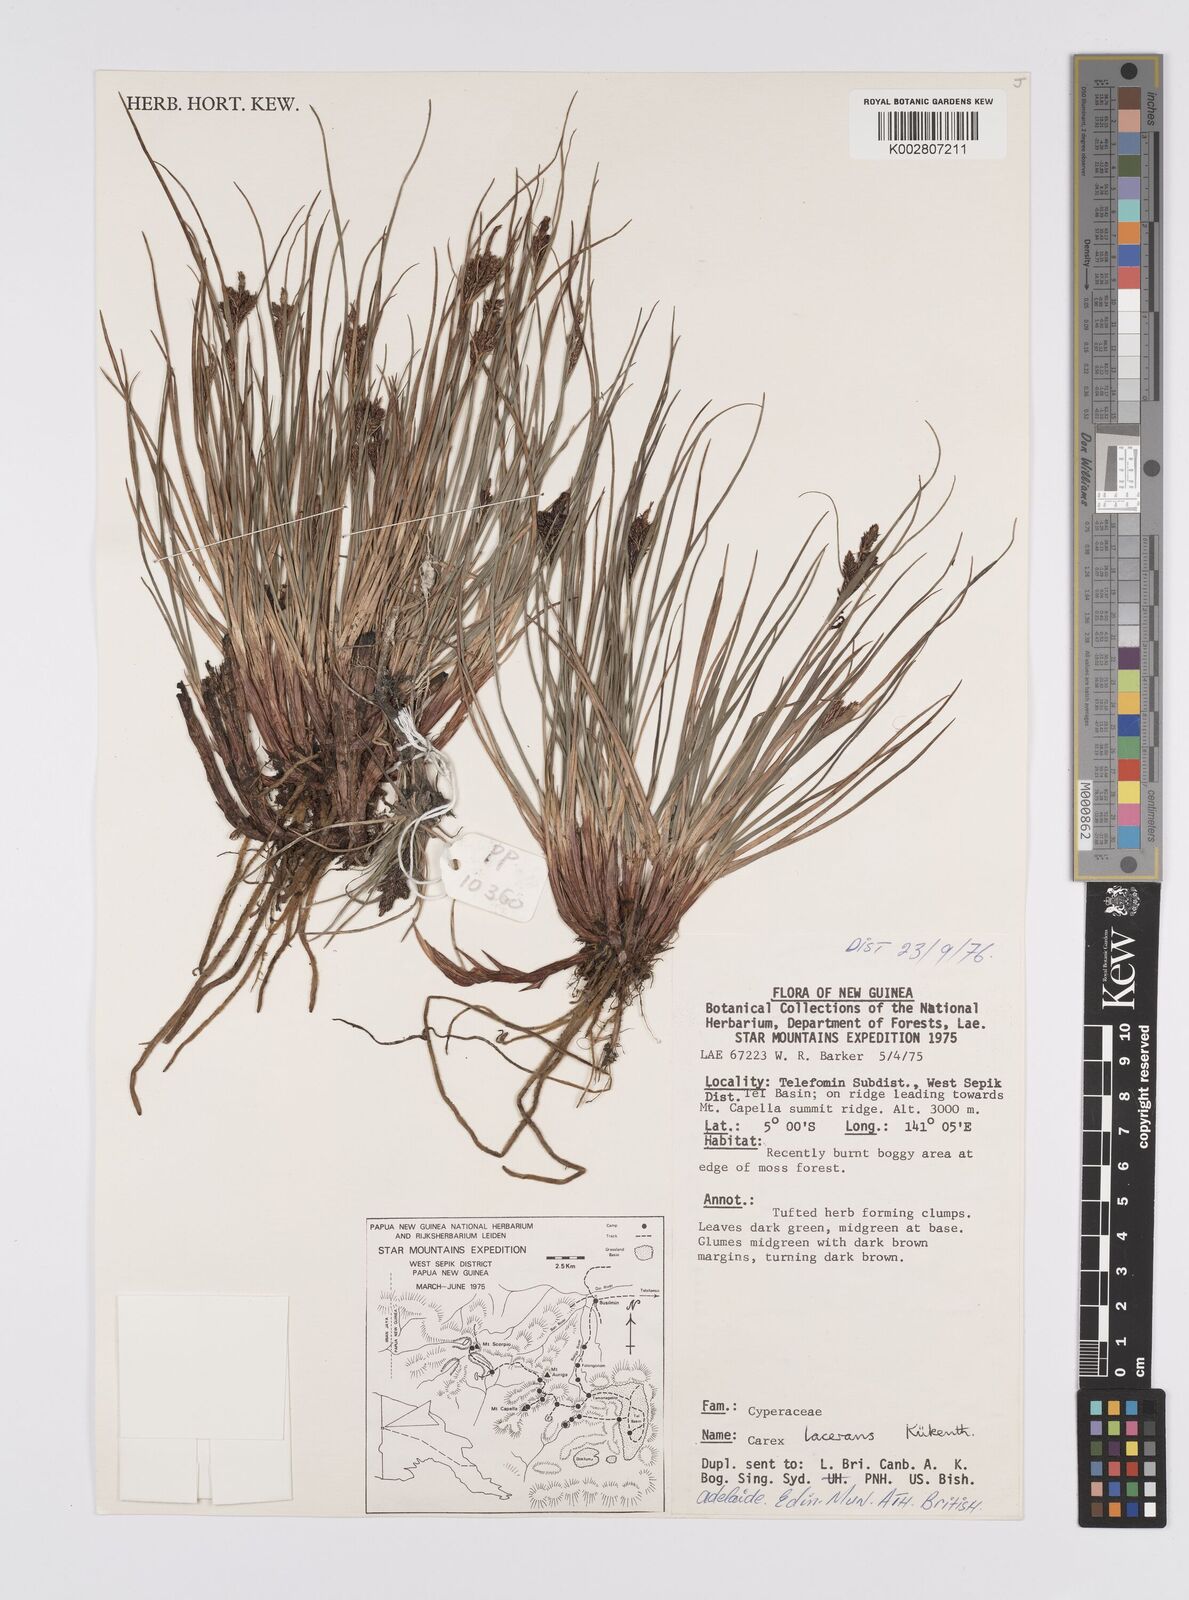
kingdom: Plantae
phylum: Tracheophyta
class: Liliopsida
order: Poales
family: Cyperaceae
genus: Carex
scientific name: Carex gaudichaudiana
